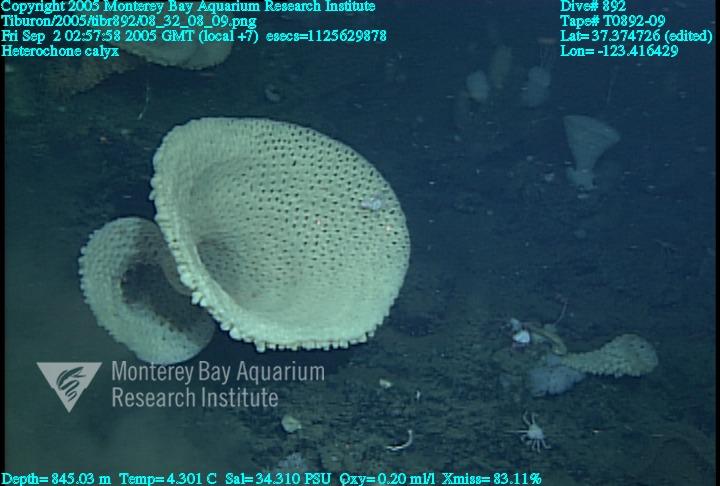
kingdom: Animalia
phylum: Porifera
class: Hexactinellida
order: Sceptrulophora
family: Aphrocallistidae
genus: Heterochone
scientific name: Heterochone calyx
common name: Fingered goblet glass sponge
